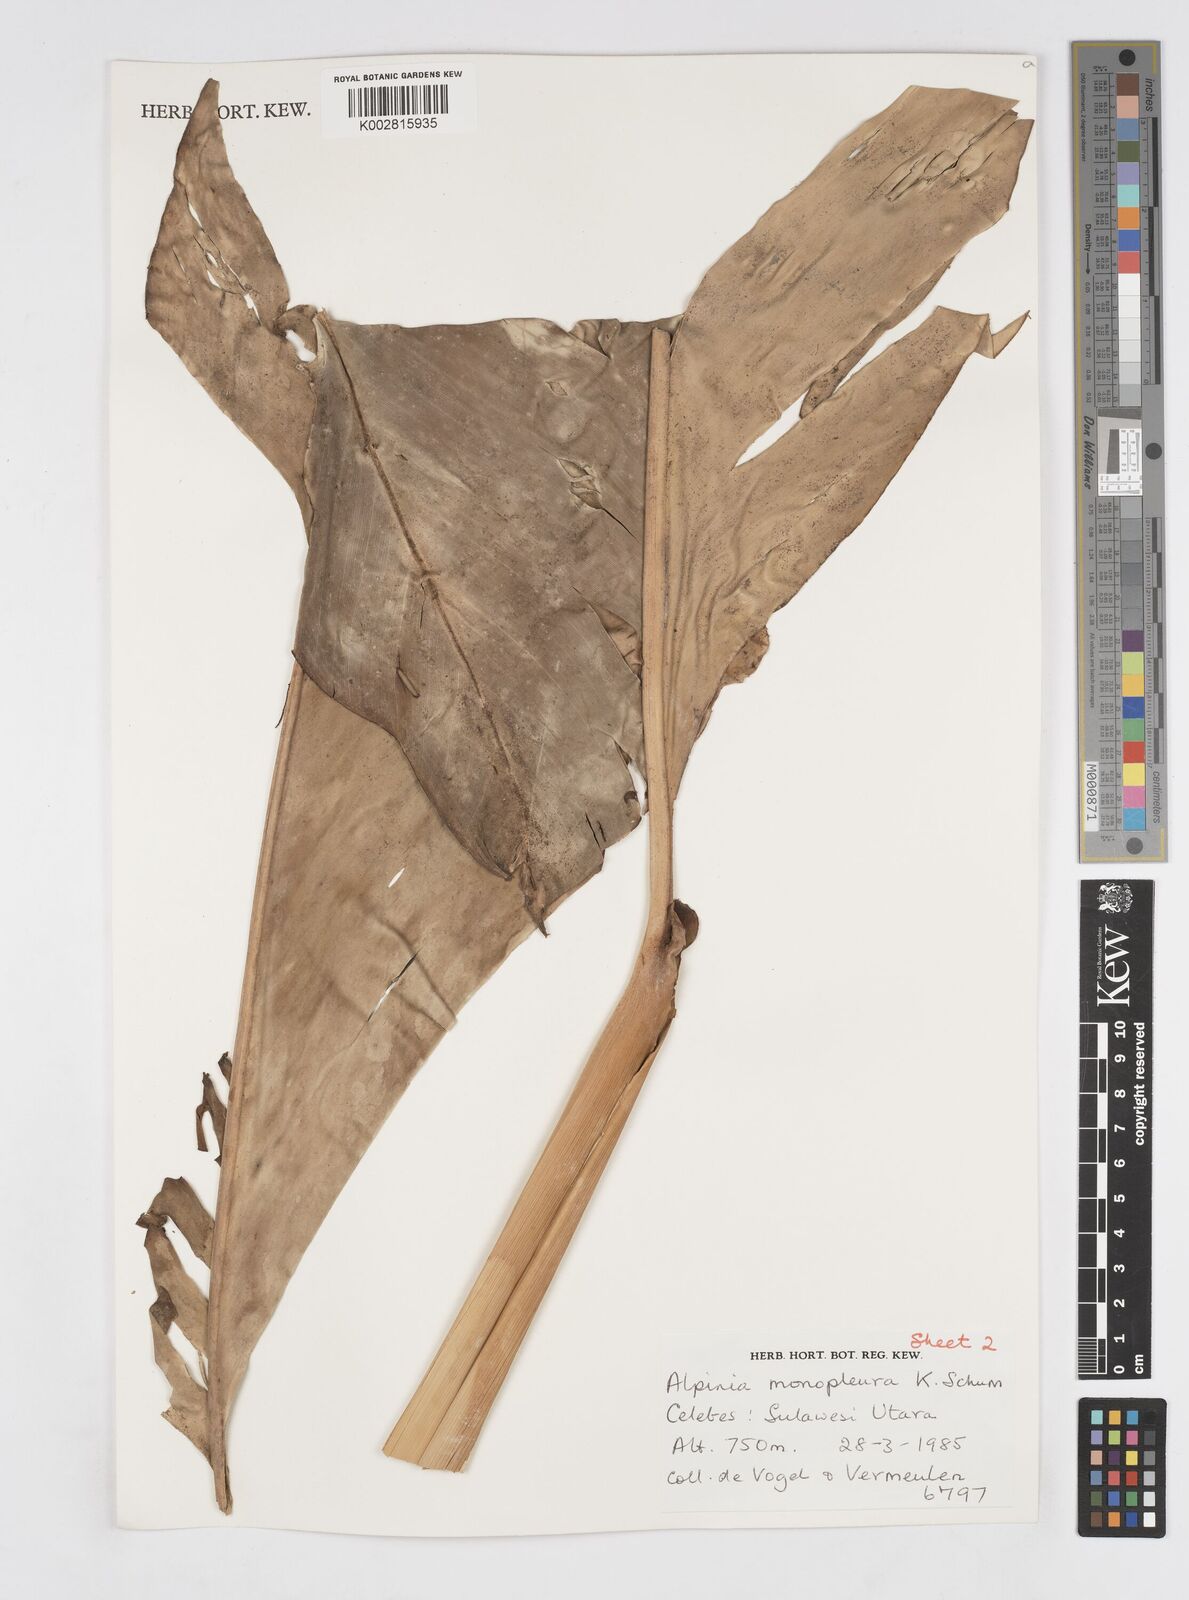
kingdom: Plantae
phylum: Tracheophyta
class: Liliopsida
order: Zingiberales
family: Zingiberaceae
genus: Alpinia
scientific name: Alpinia monopleura
